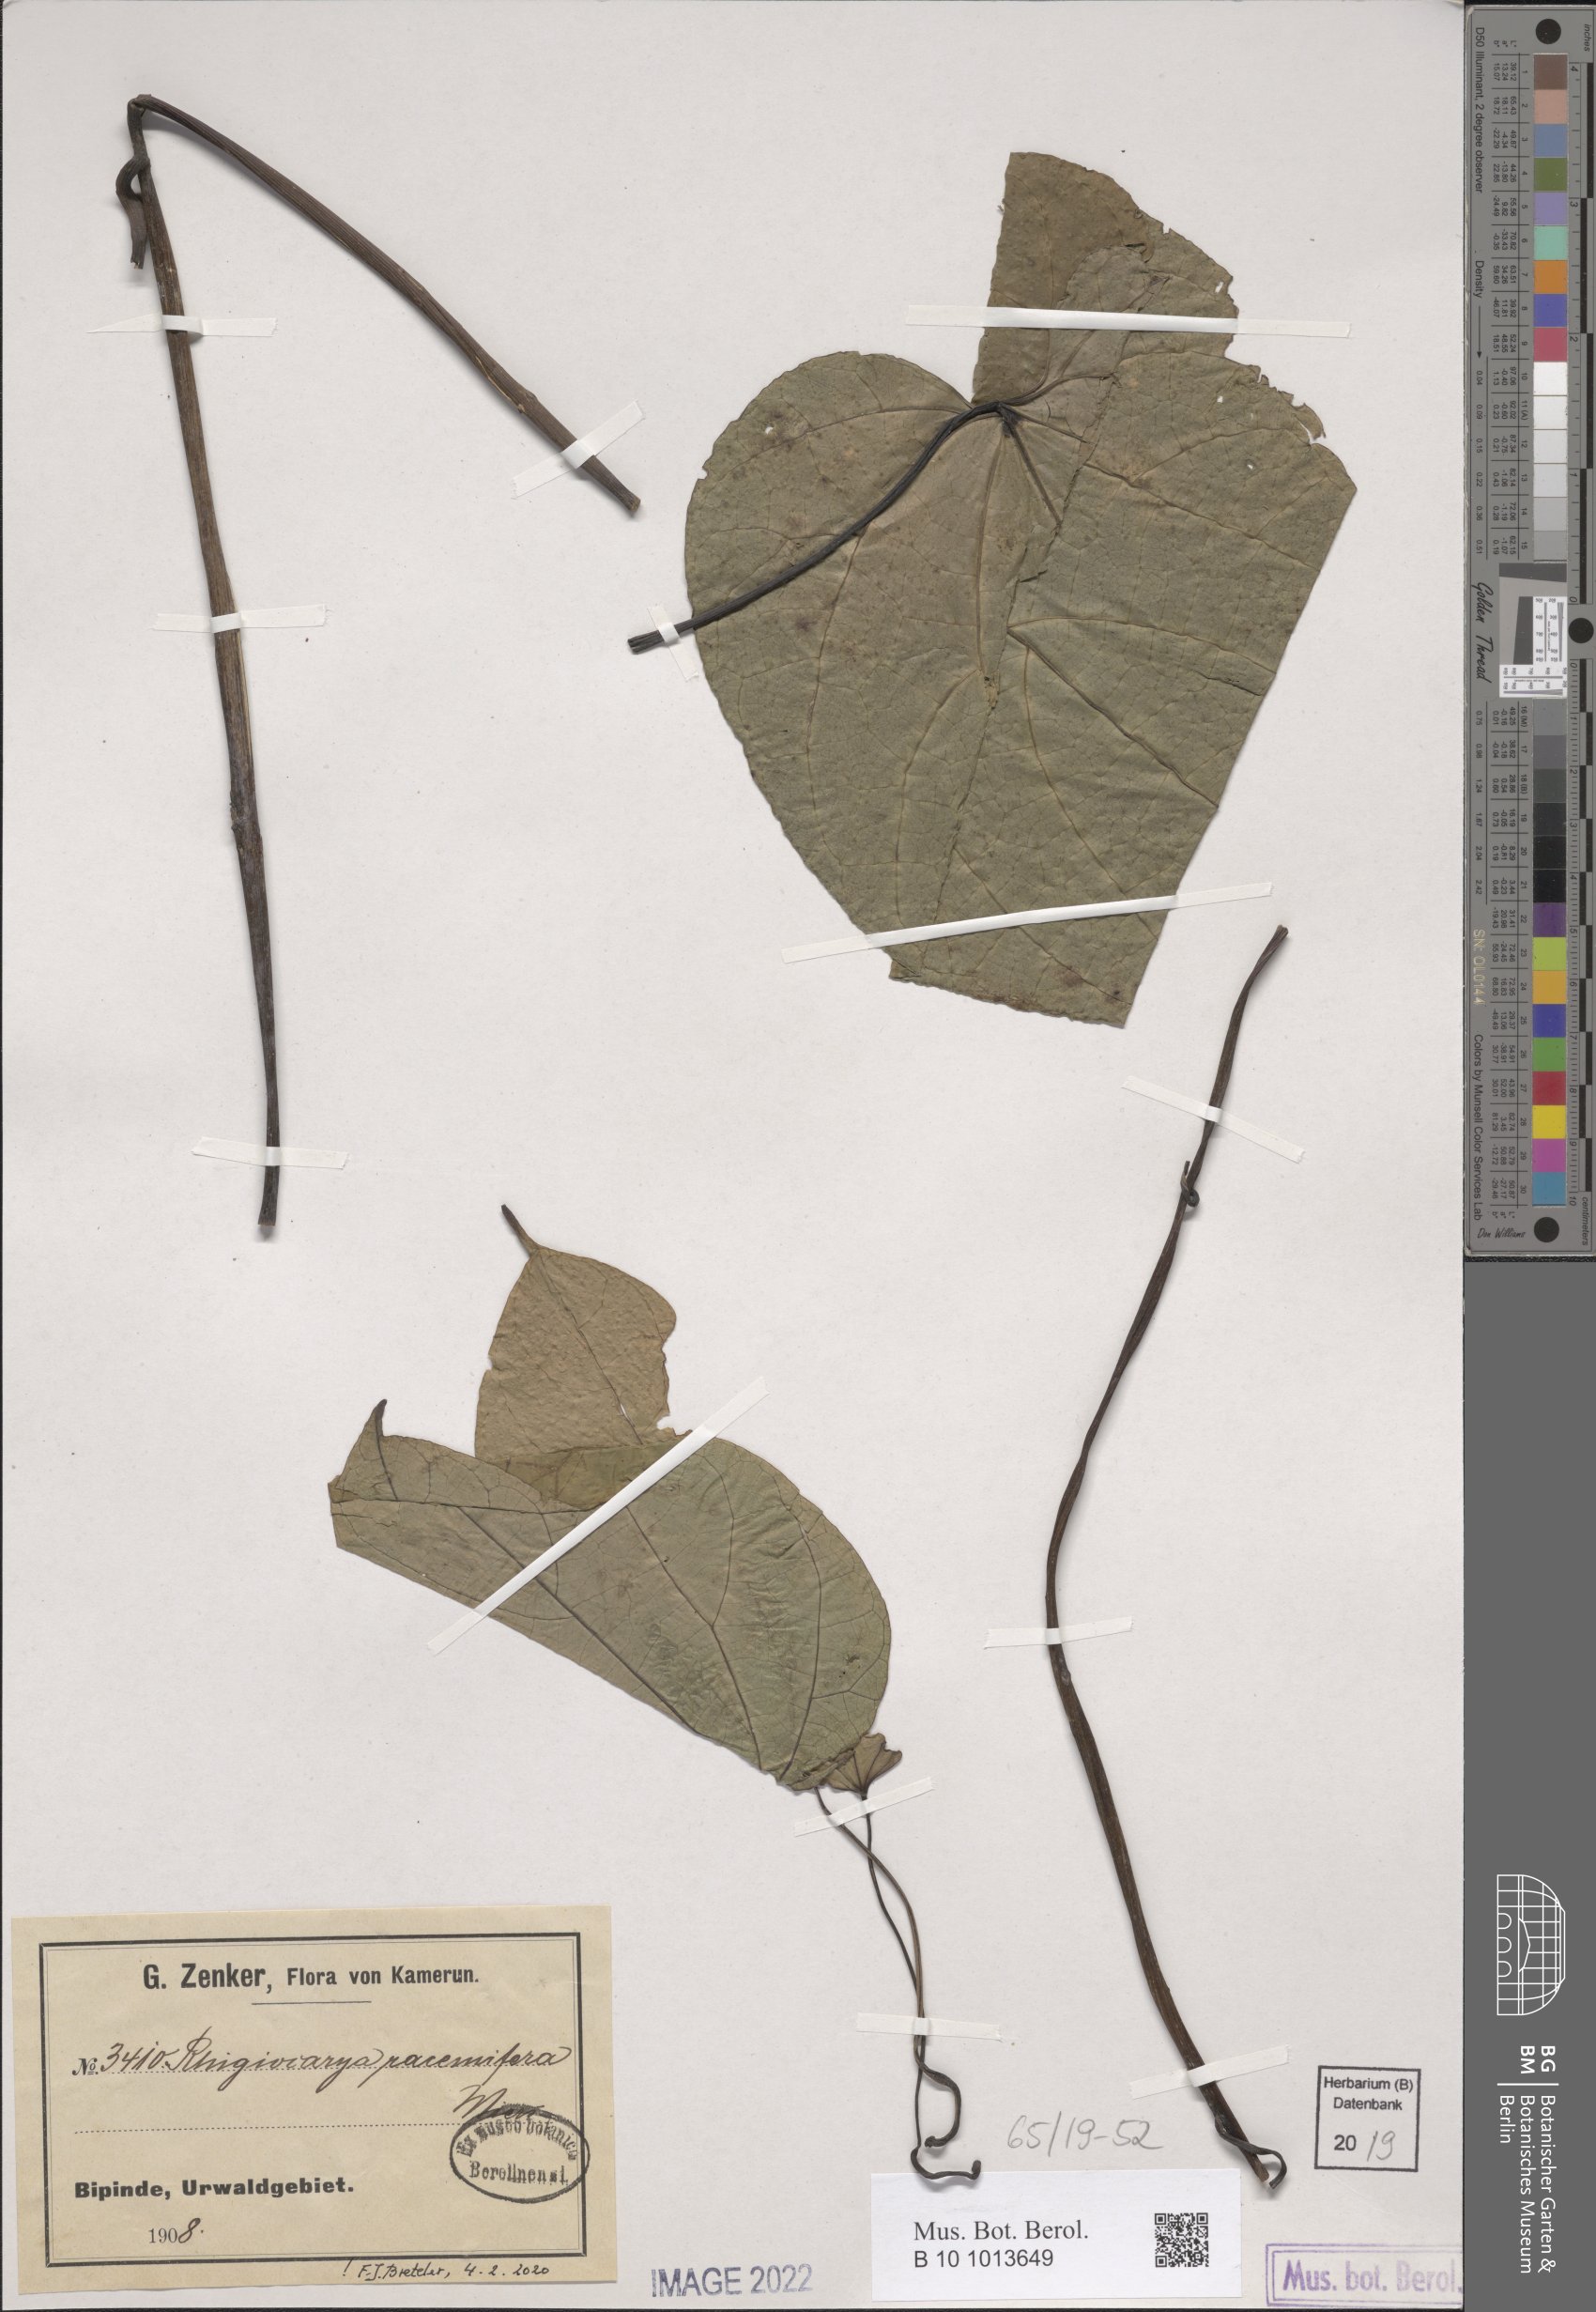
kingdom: Plantae
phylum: Tracheophyta
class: Magnoliopsida
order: Ranunculales
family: Menispermaceae
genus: Rhigiocarya
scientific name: Rhigiocarya racemifera
